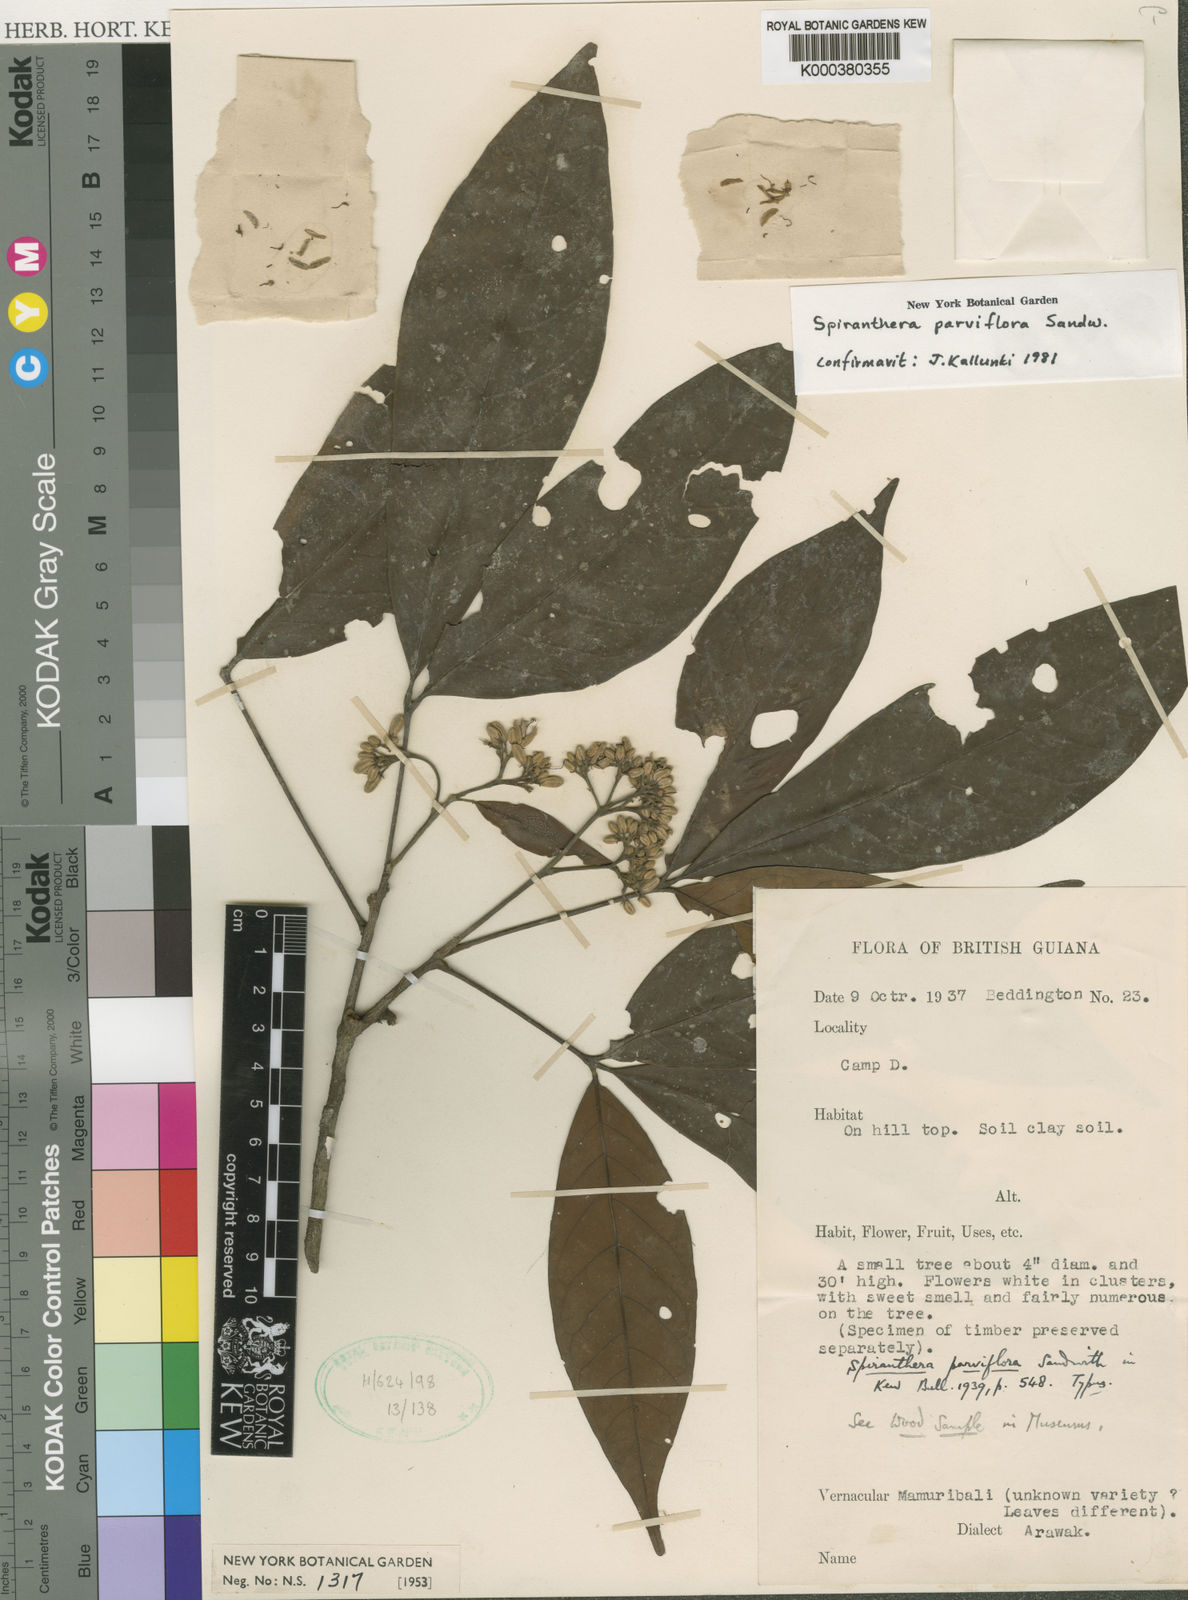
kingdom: Plantae
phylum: Tracheophyta
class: Magnoliopsida
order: Sapindales
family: Rutaceae
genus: Spiranthera
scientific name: Spiranthera parviflora
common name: Mamuri bali
